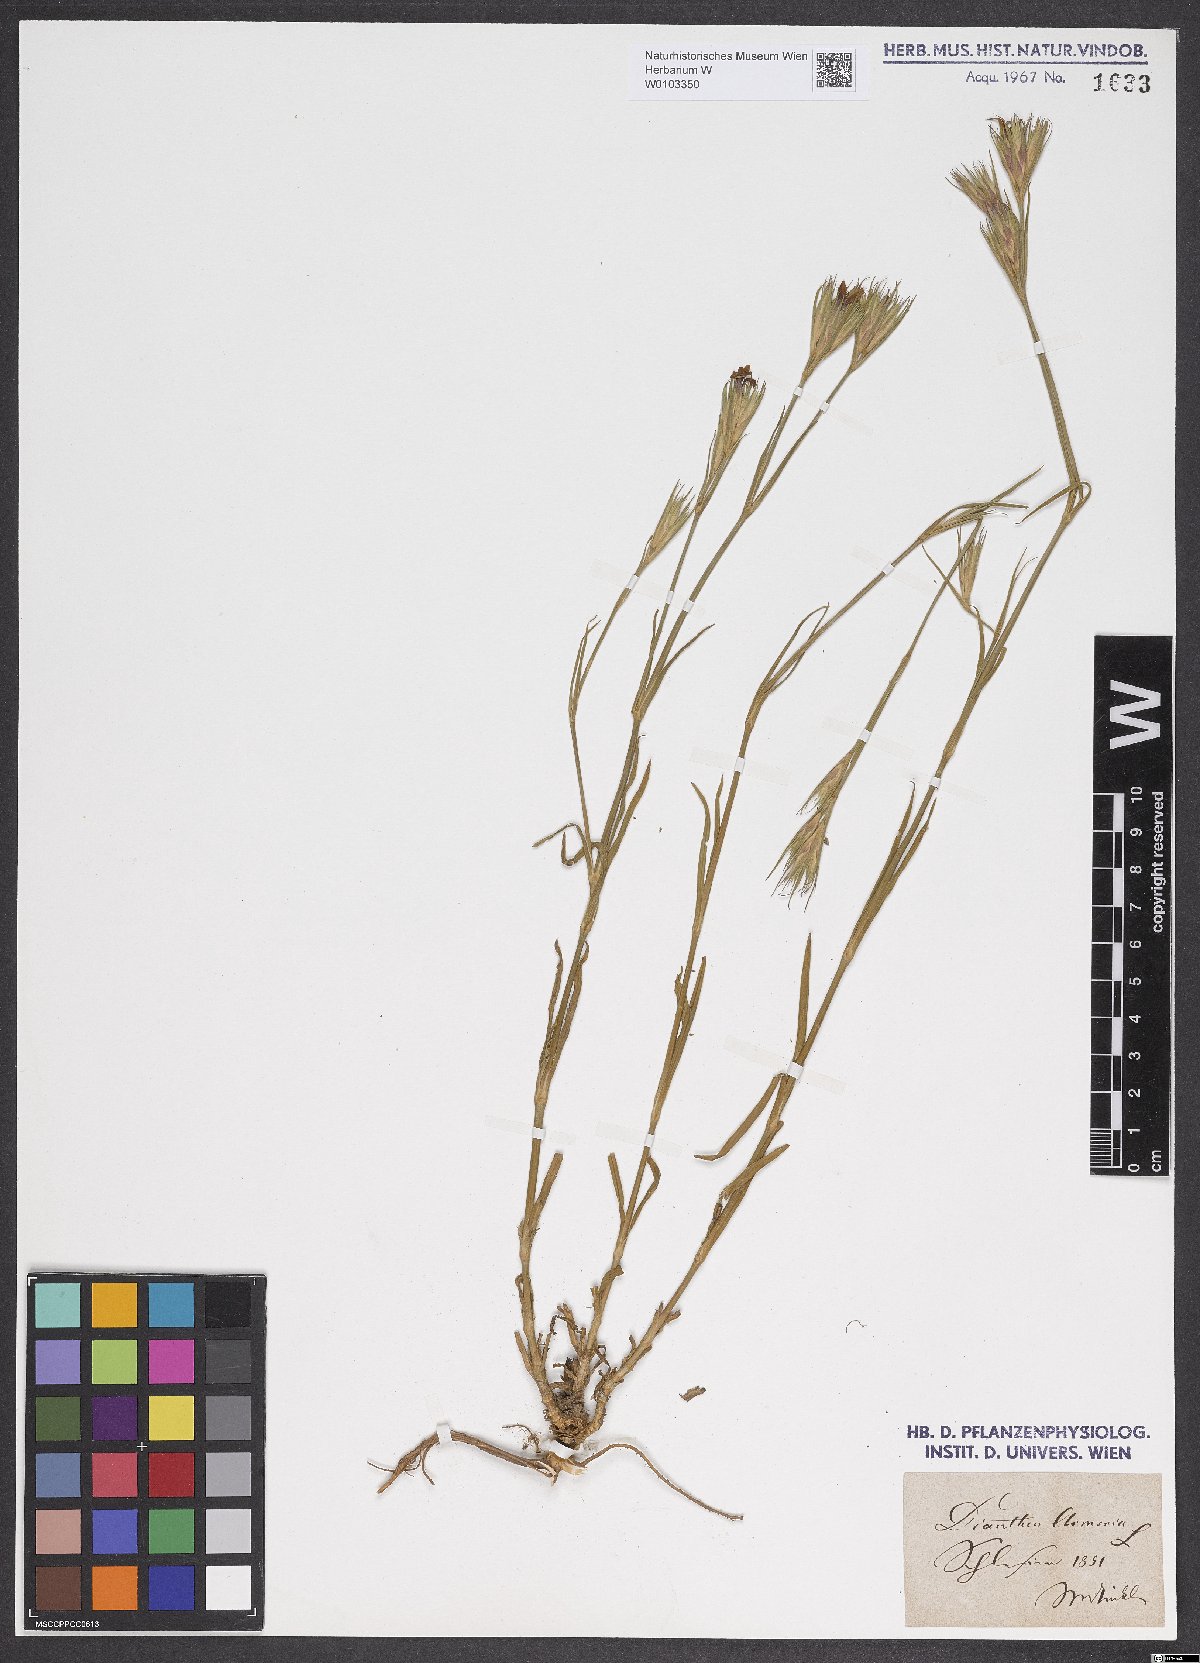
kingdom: Plantae
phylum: Tracheophyta
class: Magnoliopsida
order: Caryophyllales
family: Caryophyllaceae
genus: Dianthus
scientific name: Dianthus armeria
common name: Deptford pink
